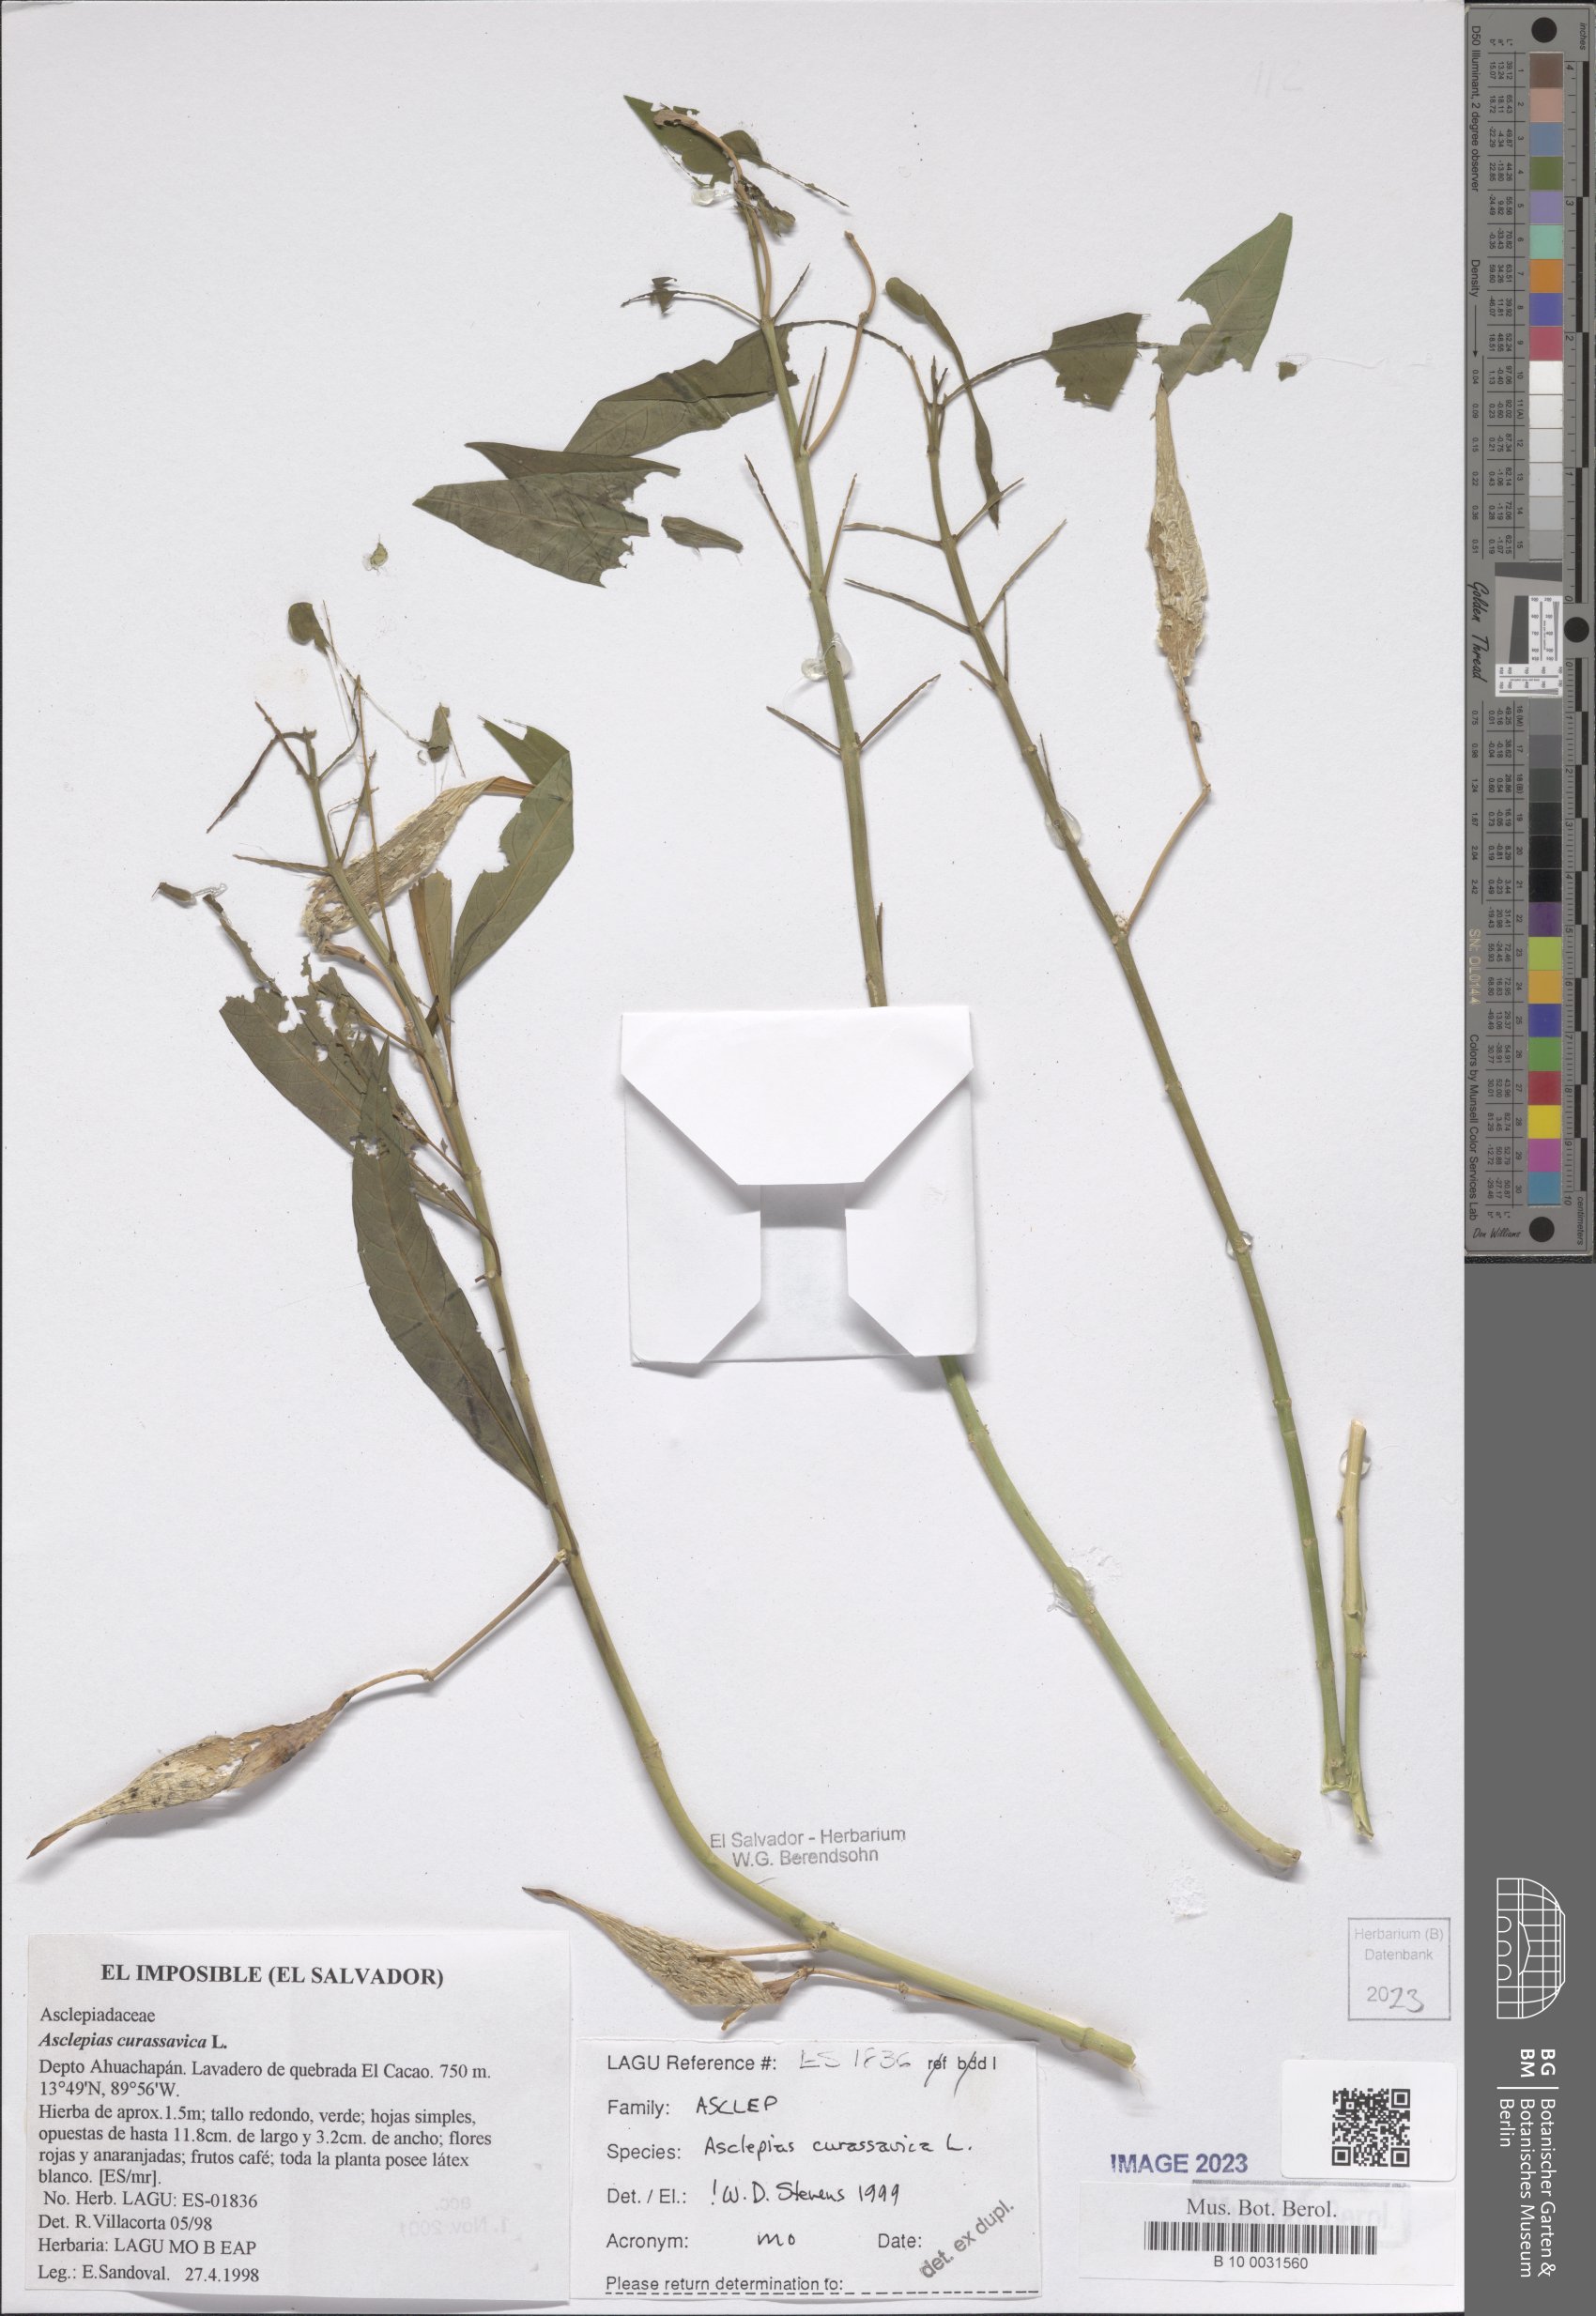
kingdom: Plantae
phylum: Tracheophyta
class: Magnoliopsida
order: Gentianales
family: Apocynaceae
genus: Asclepias
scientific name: Asclepias curassavica
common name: Bloodflower
